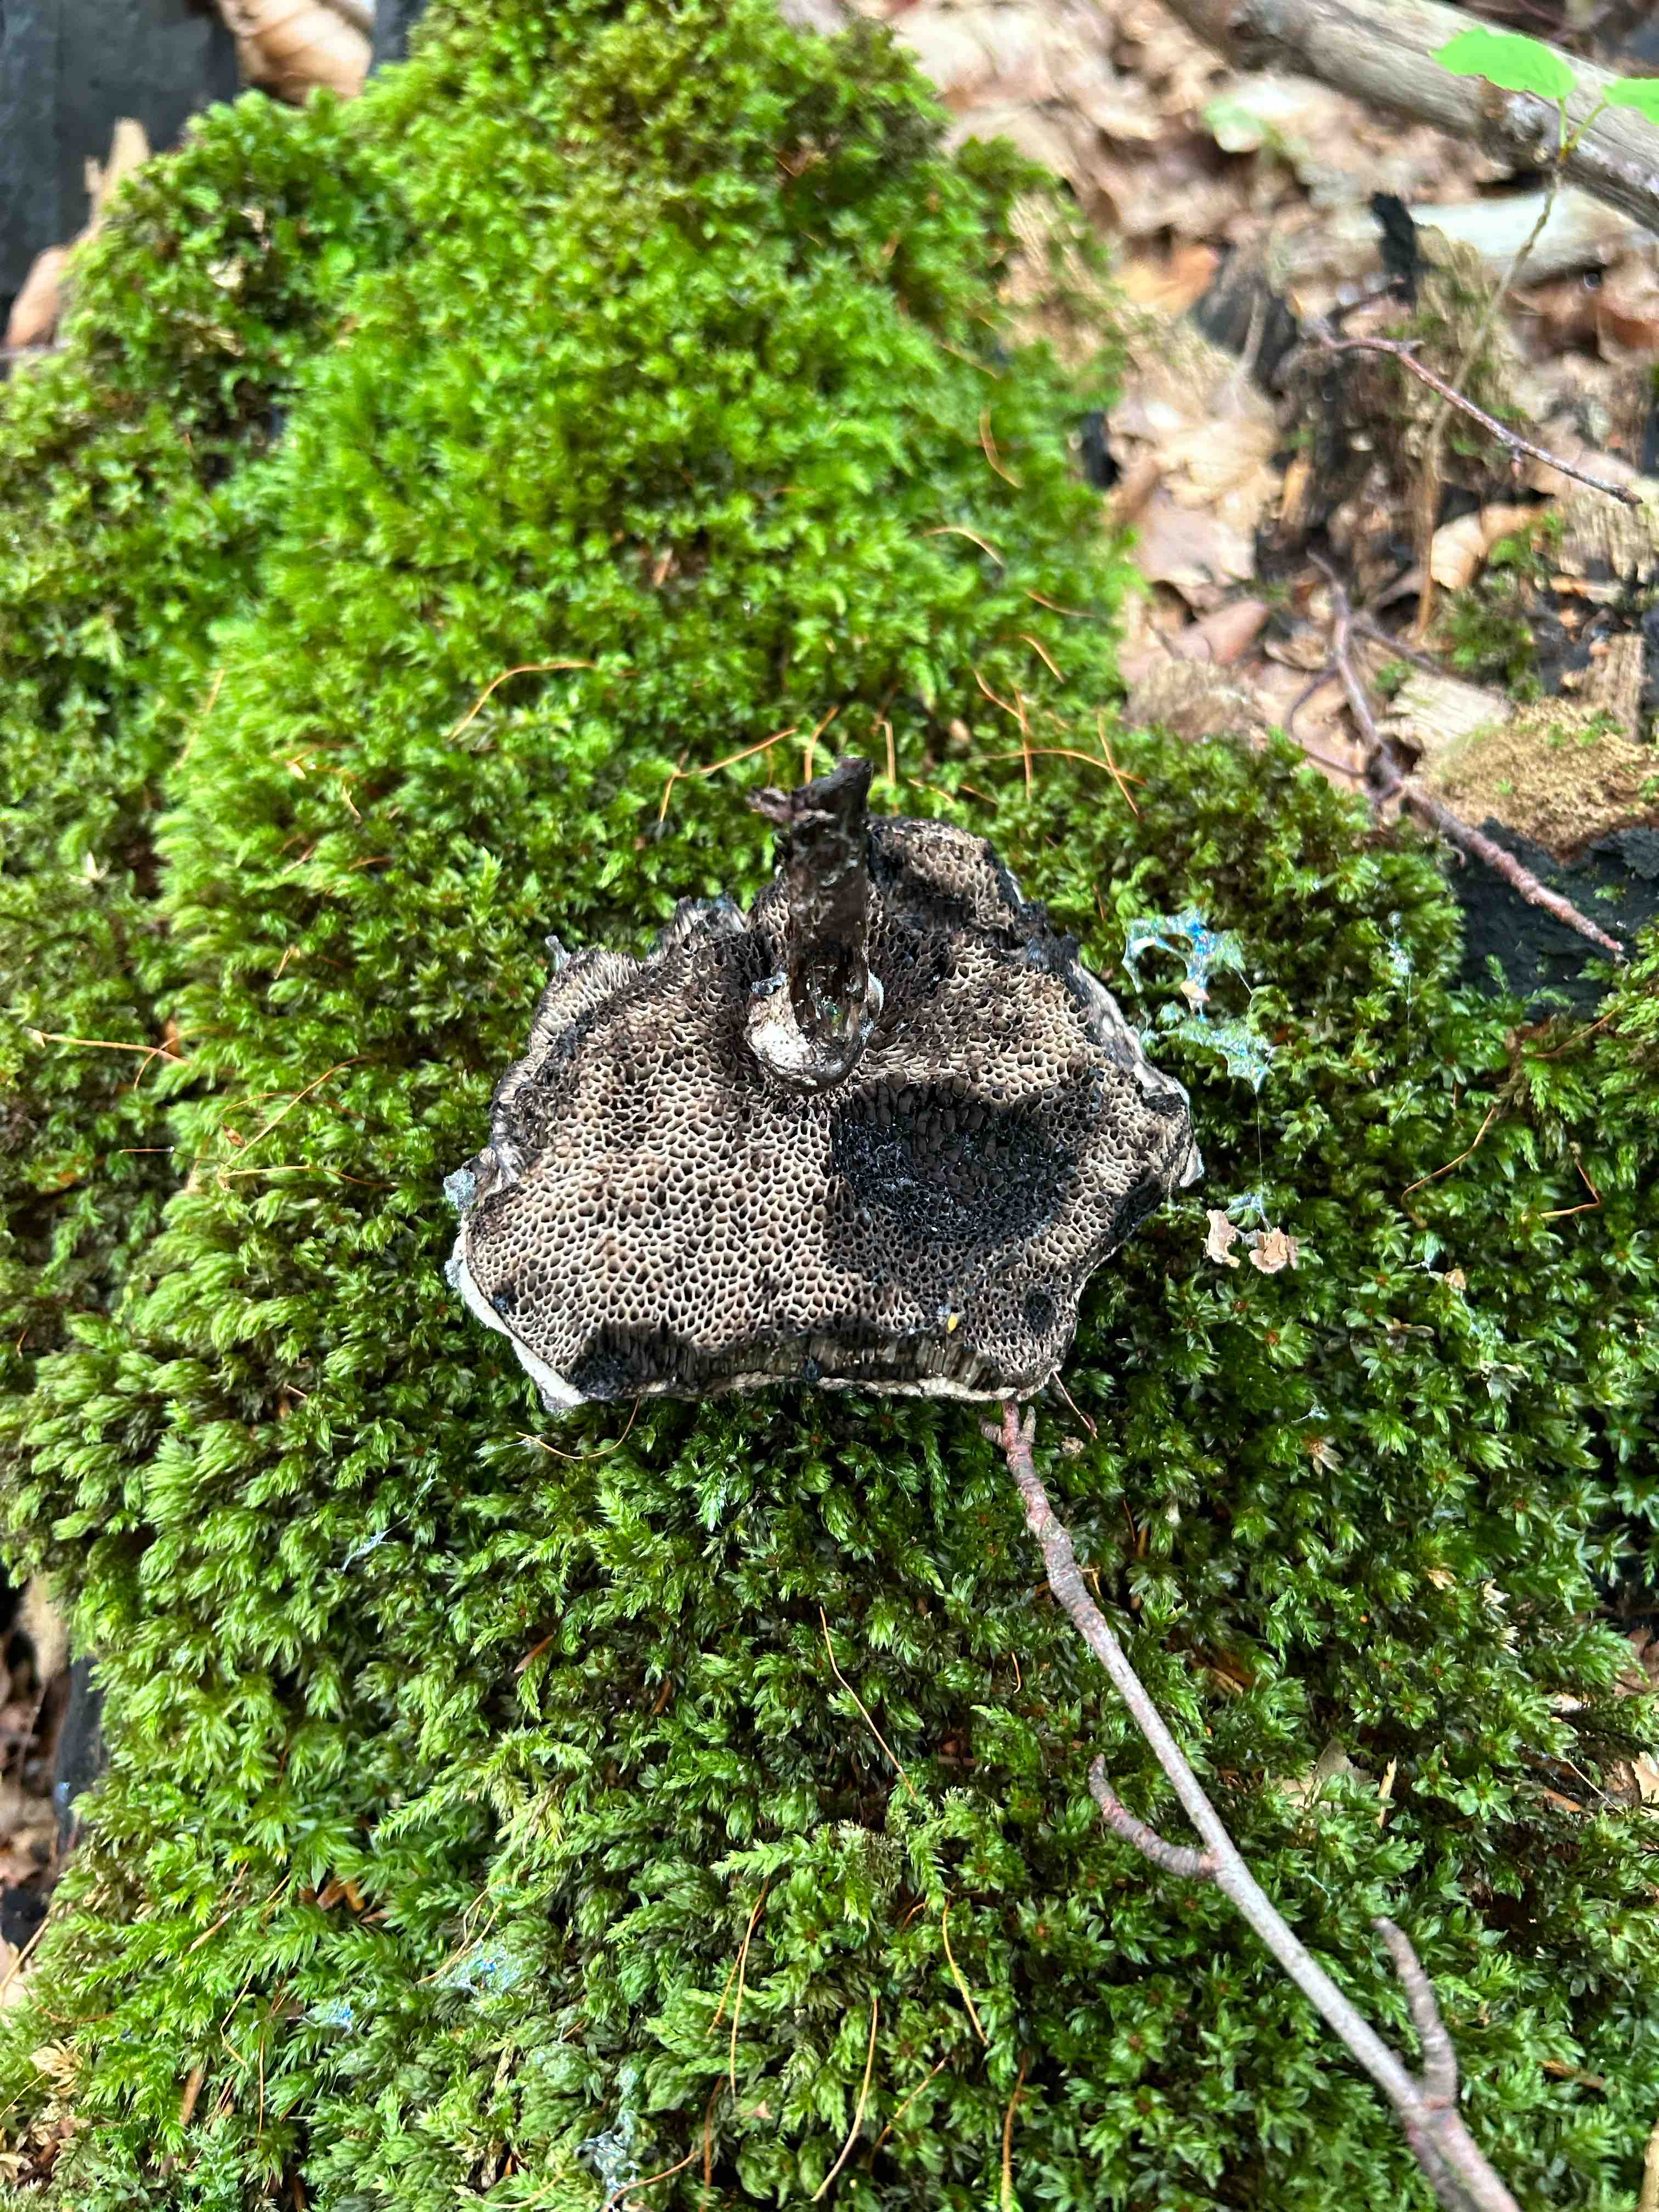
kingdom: Fungi
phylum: Basidiomycota
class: Agaricomycetes
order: Boletales
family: Boletaceae
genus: Strobilomyces
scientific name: Strobilomyces strobilaceus
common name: koglerørhat
